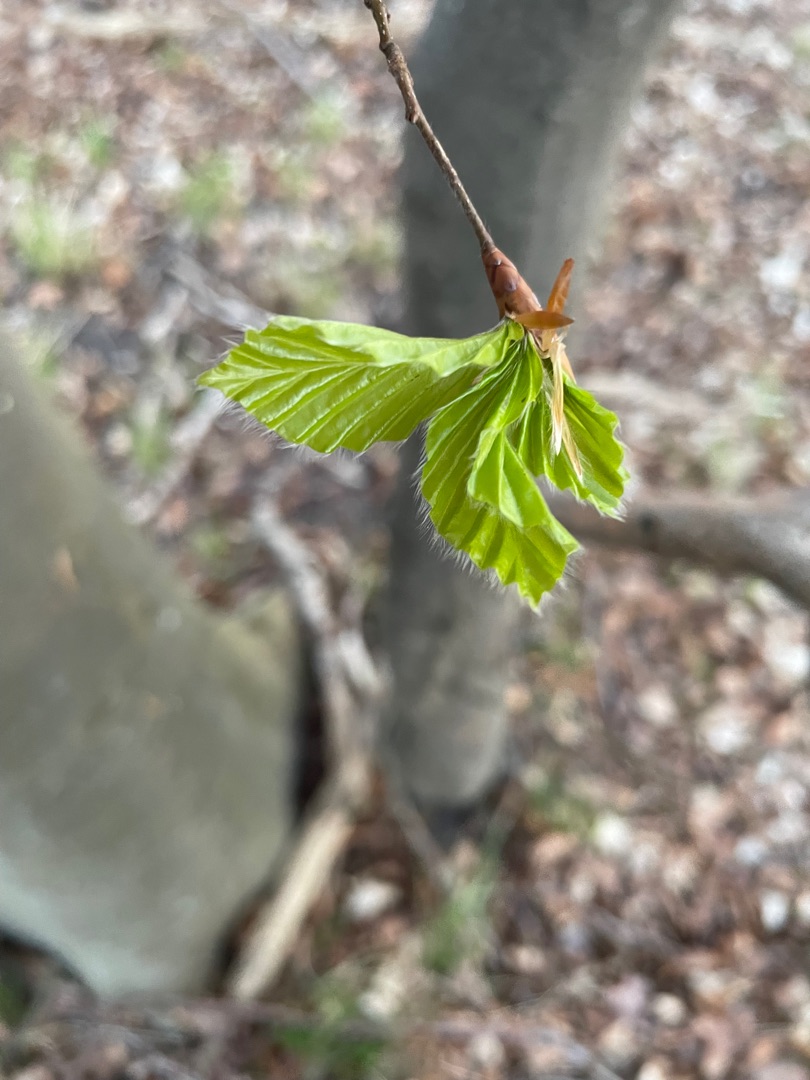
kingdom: Plantae
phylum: Tracheophyta
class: Magnoliopsida
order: Fagales
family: Fagaceae
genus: Fagus
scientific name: Fagus sylvatica
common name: Bøg
